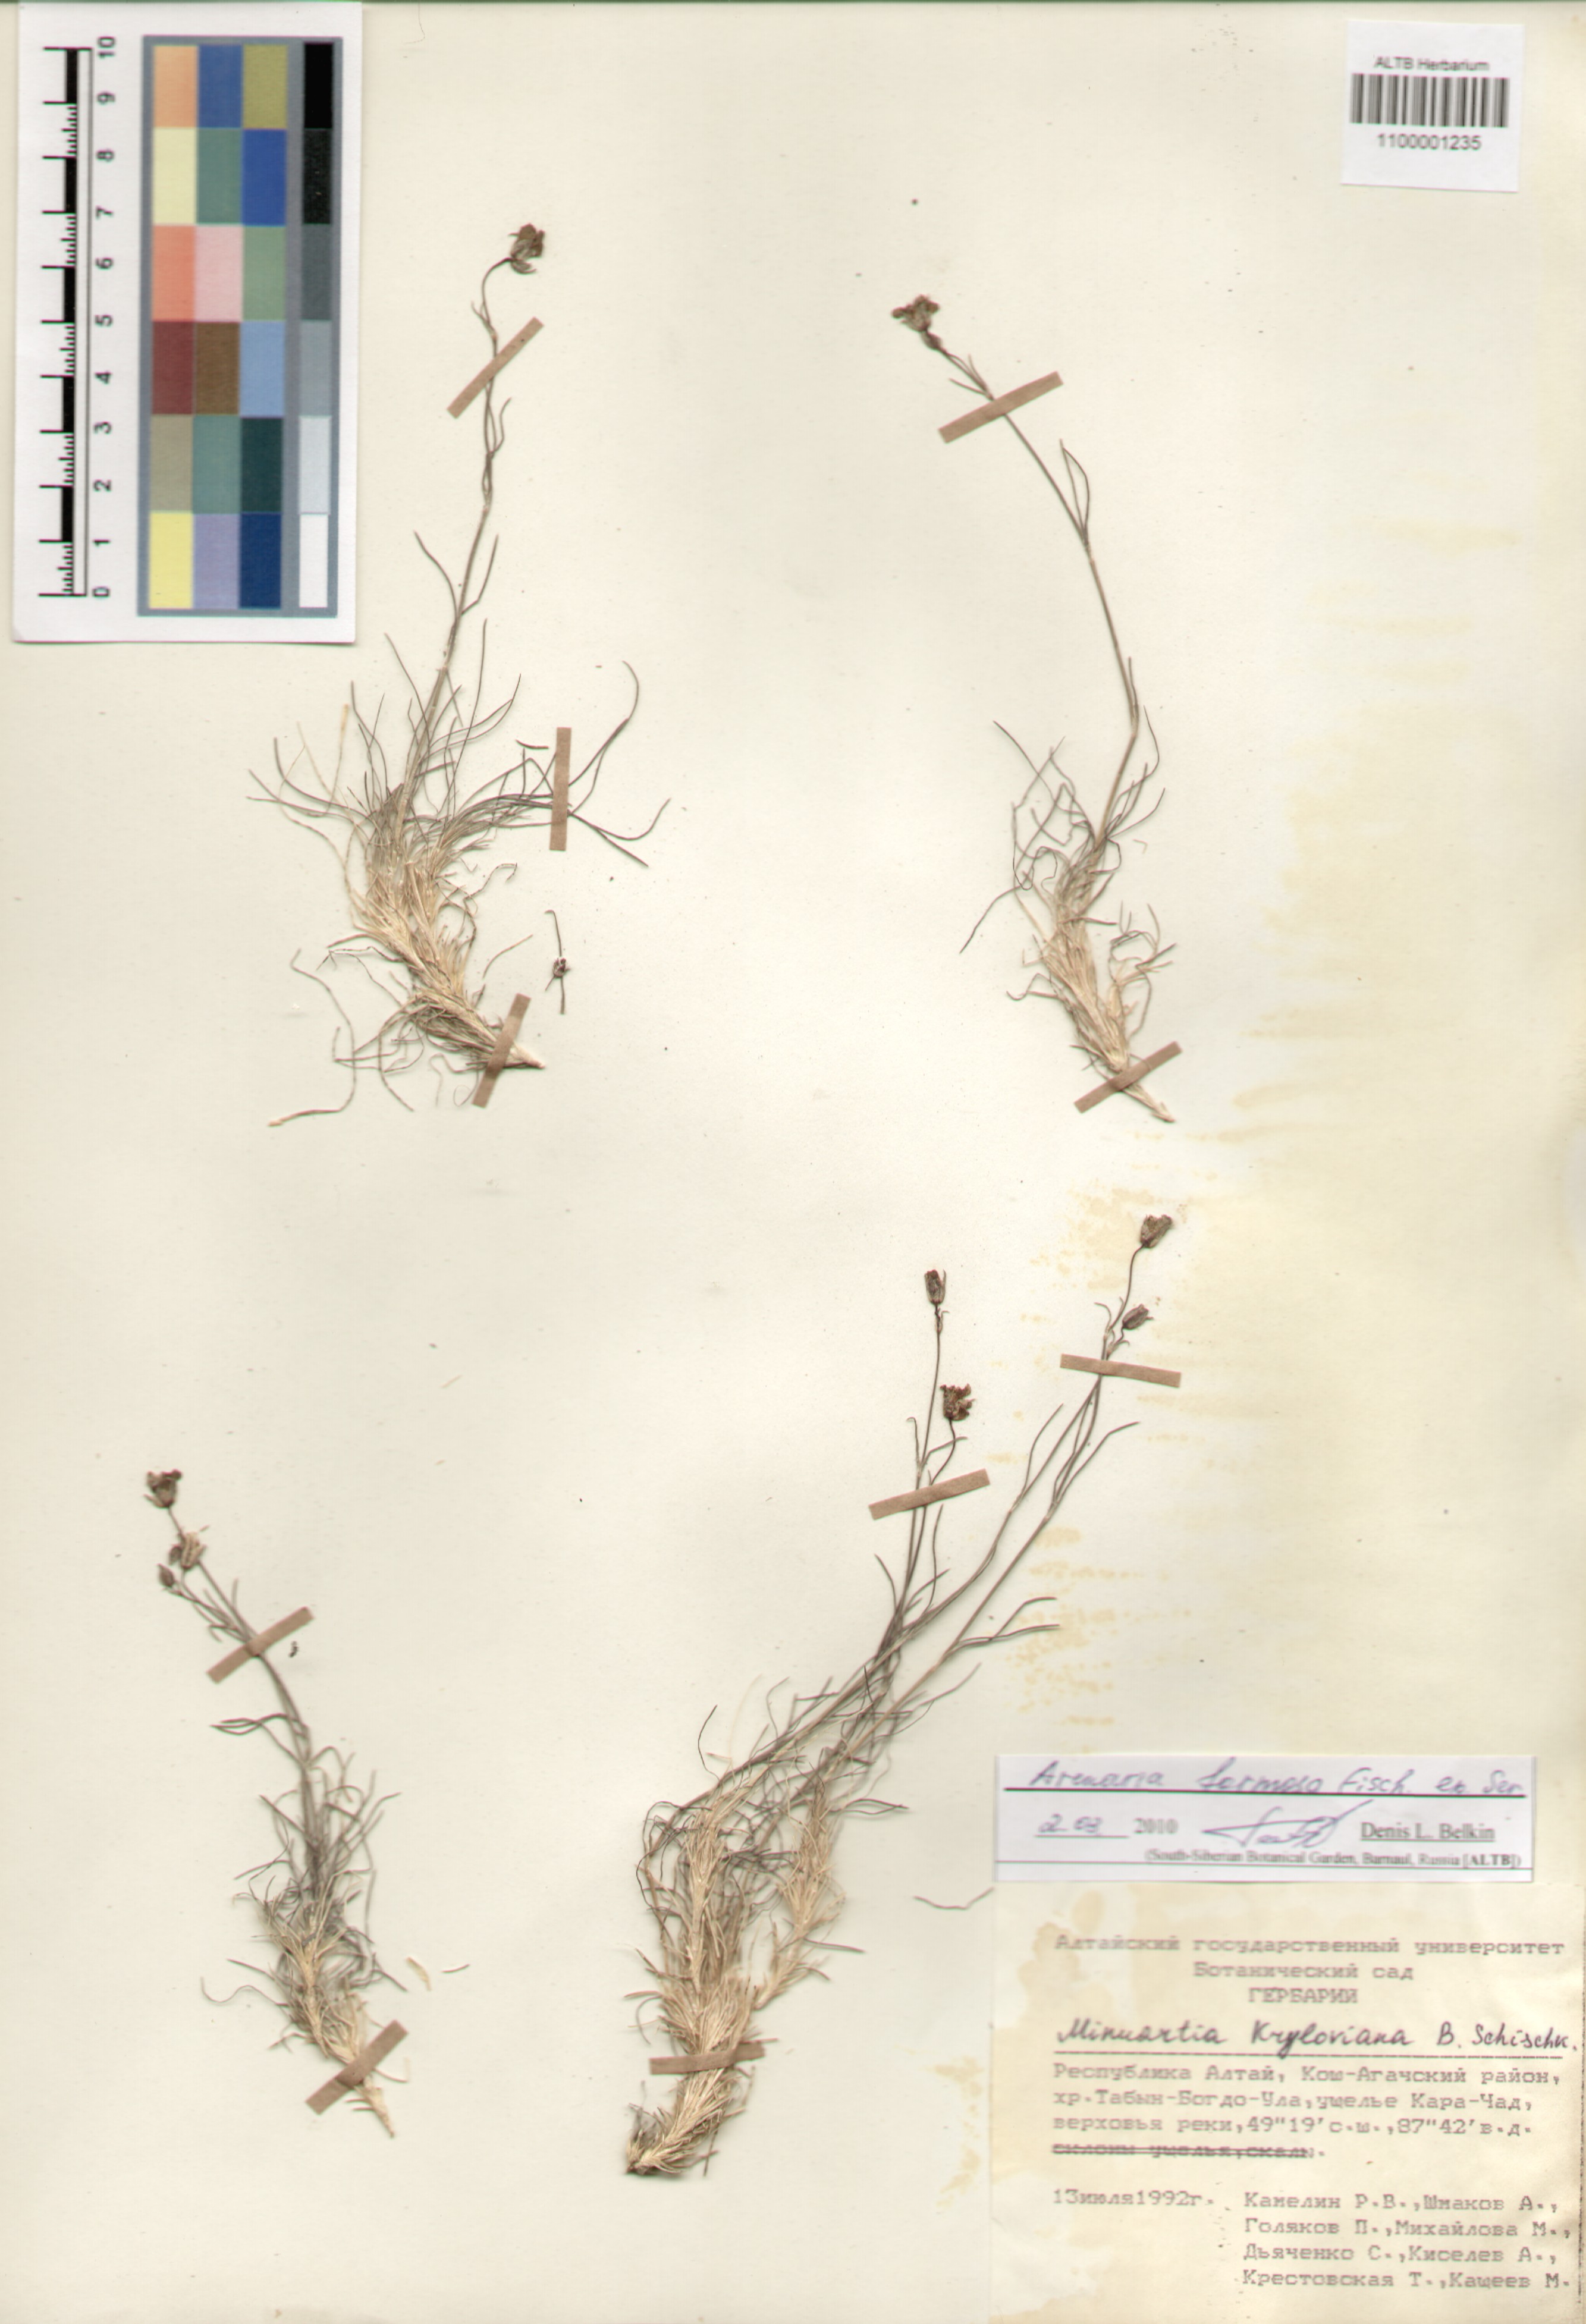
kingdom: Plantae
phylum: Tracheophyta
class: Magnoliopsida
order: Caryophyllales
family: Caryophyllaceae
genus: Eremogone
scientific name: Eremogone formosa
